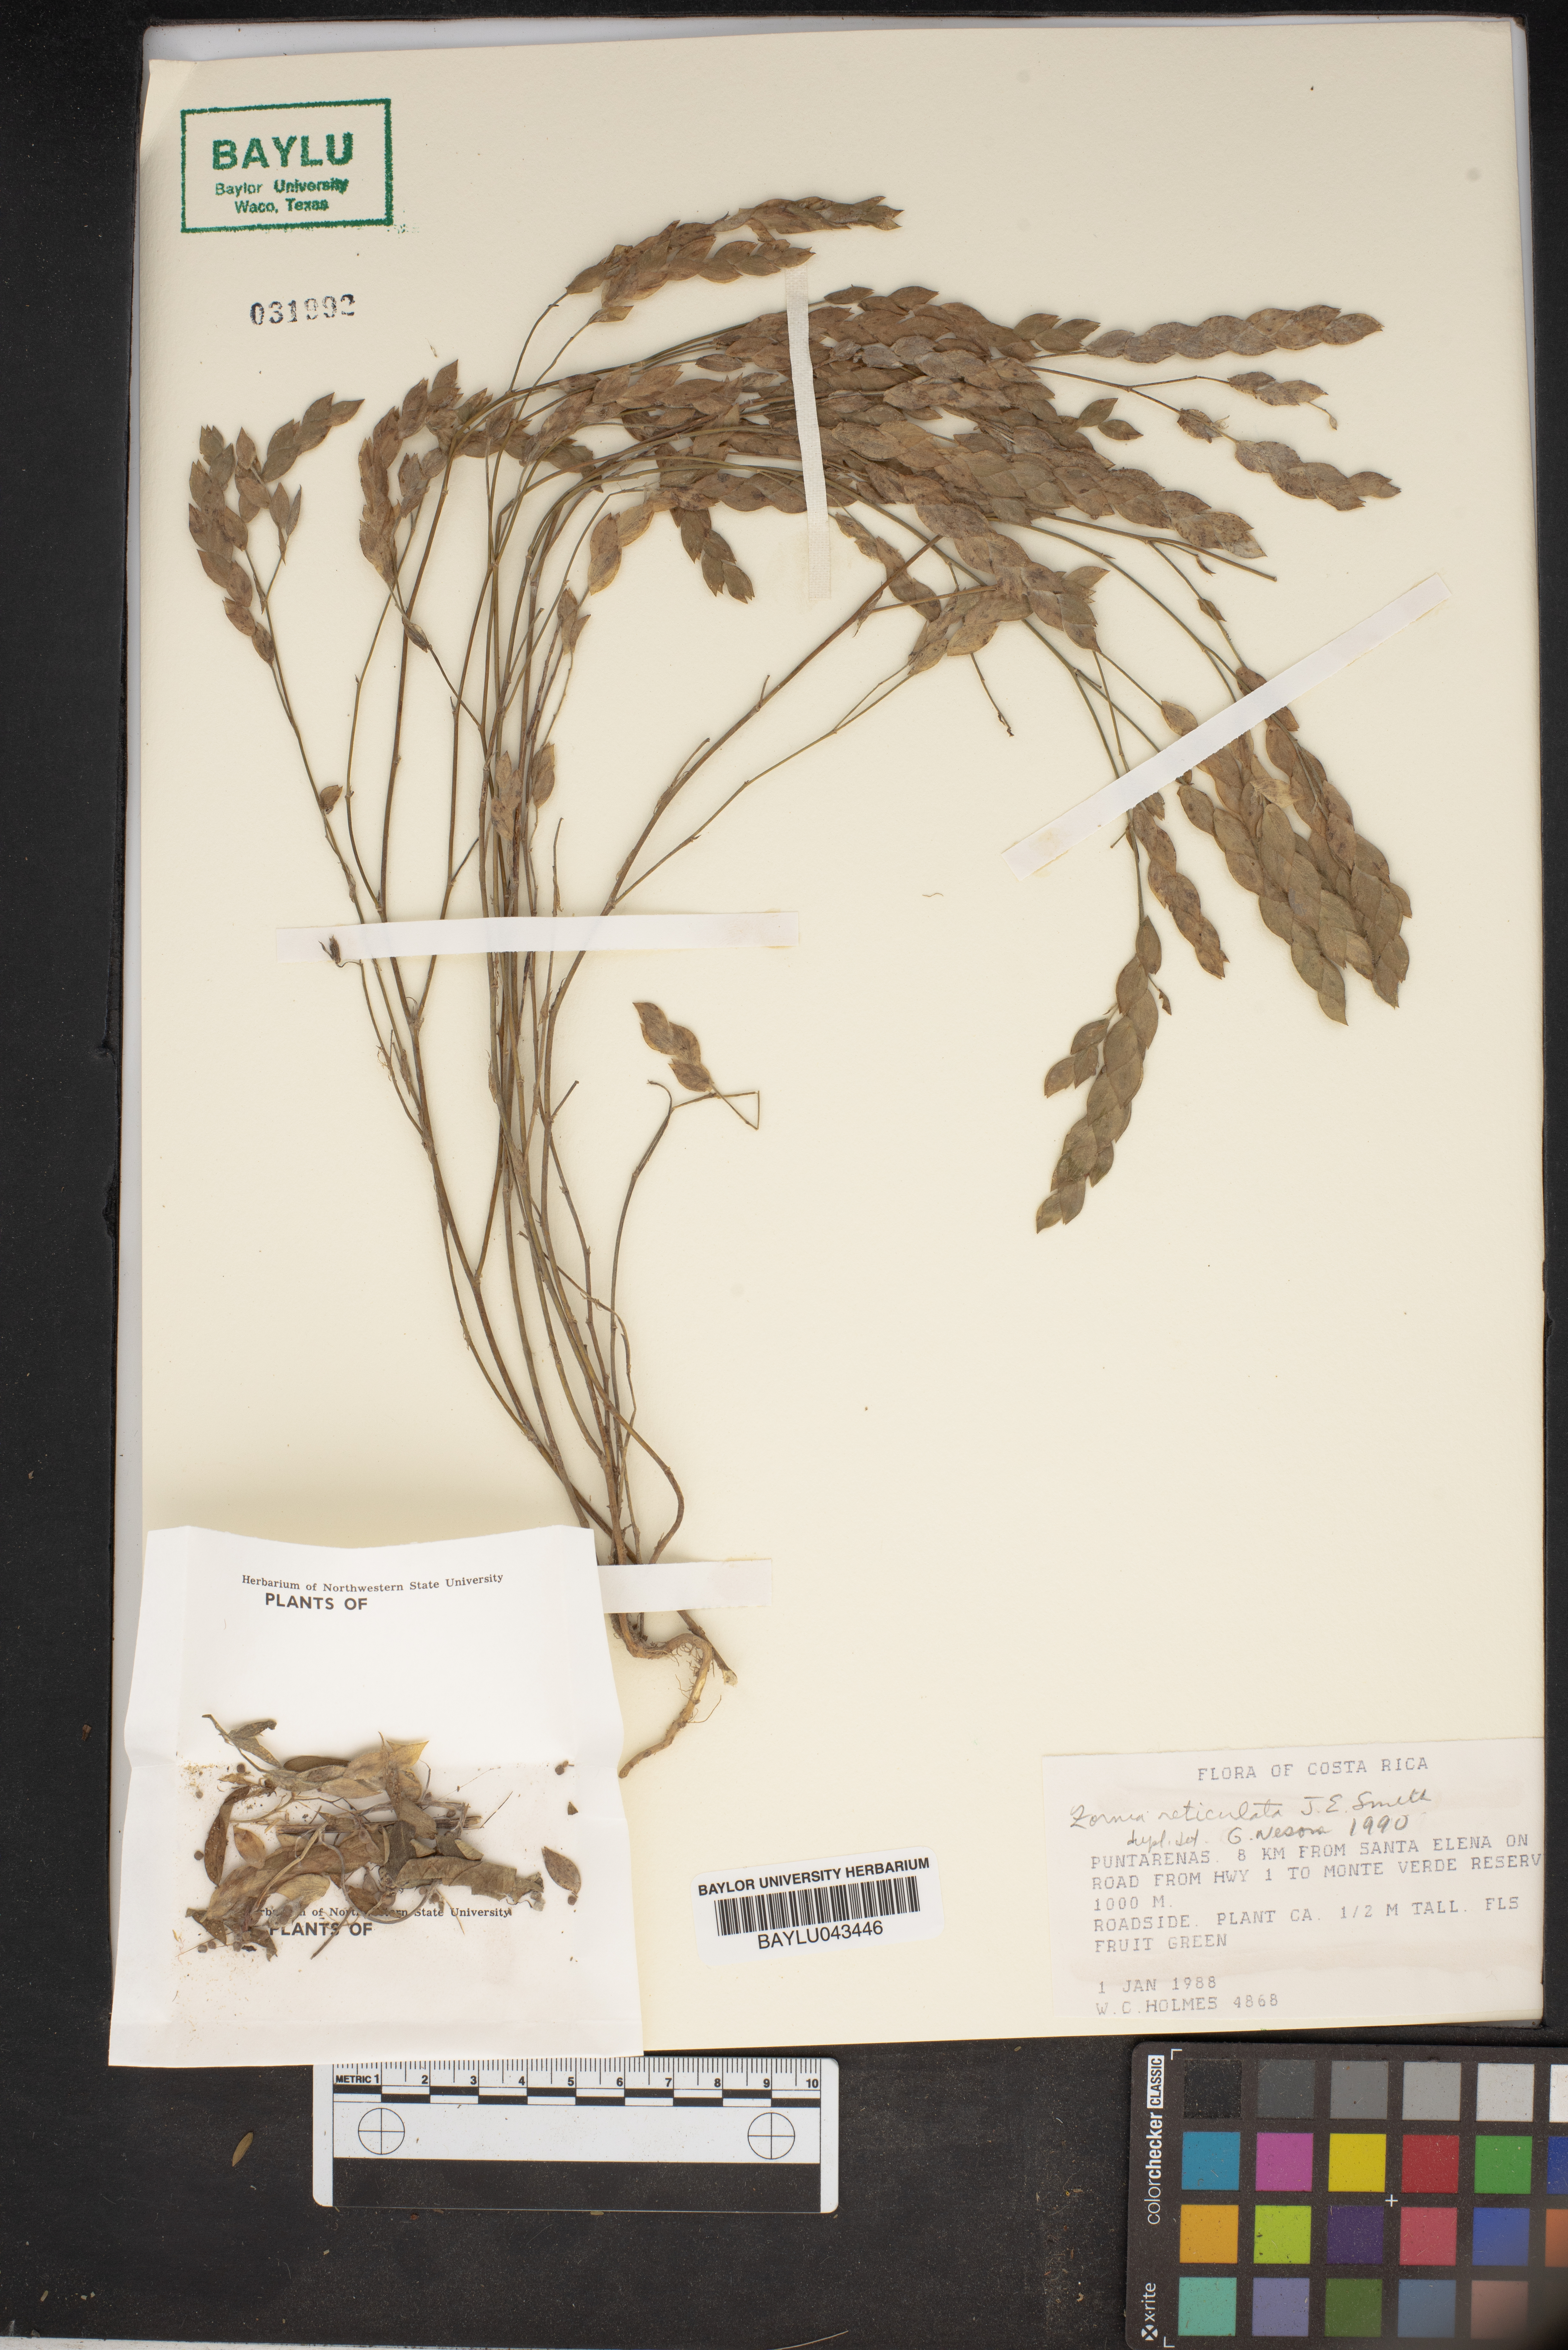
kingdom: Plantae
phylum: Tracheophyta
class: Magnoliopsida
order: Fabales
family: Fabaceae
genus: Zornia
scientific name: Zornia reticulata
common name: Reticulate viperina
